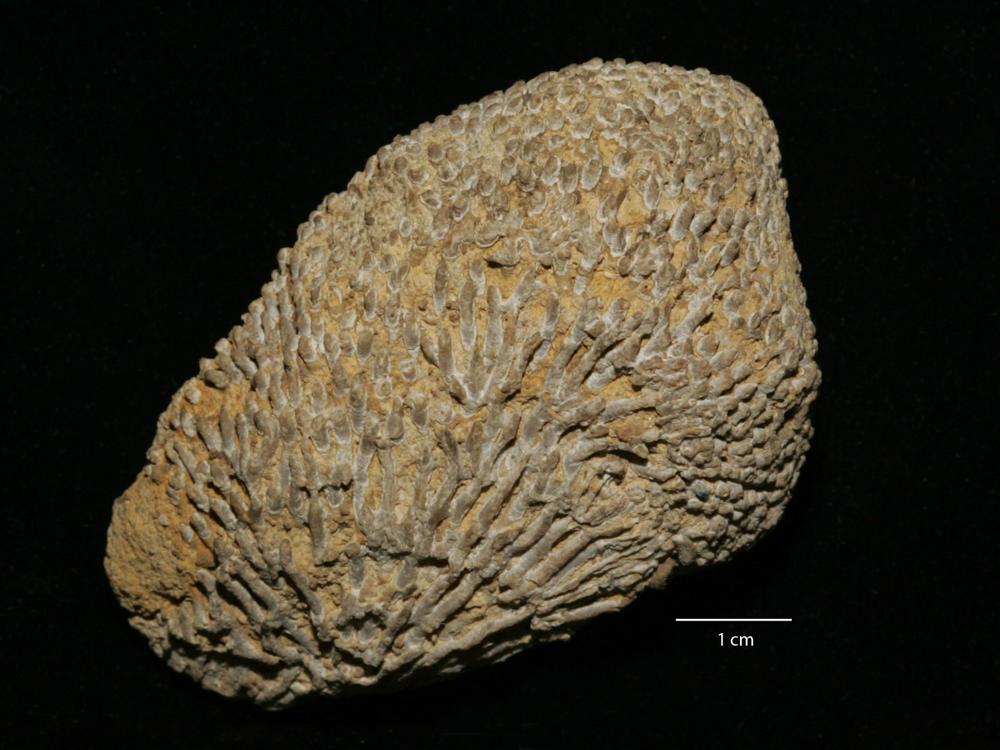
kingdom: Animalia
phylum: Cnidaria
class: Anthozoa
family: Syringoporidae
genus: Syringopora
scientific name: Syringopora bifurcata
